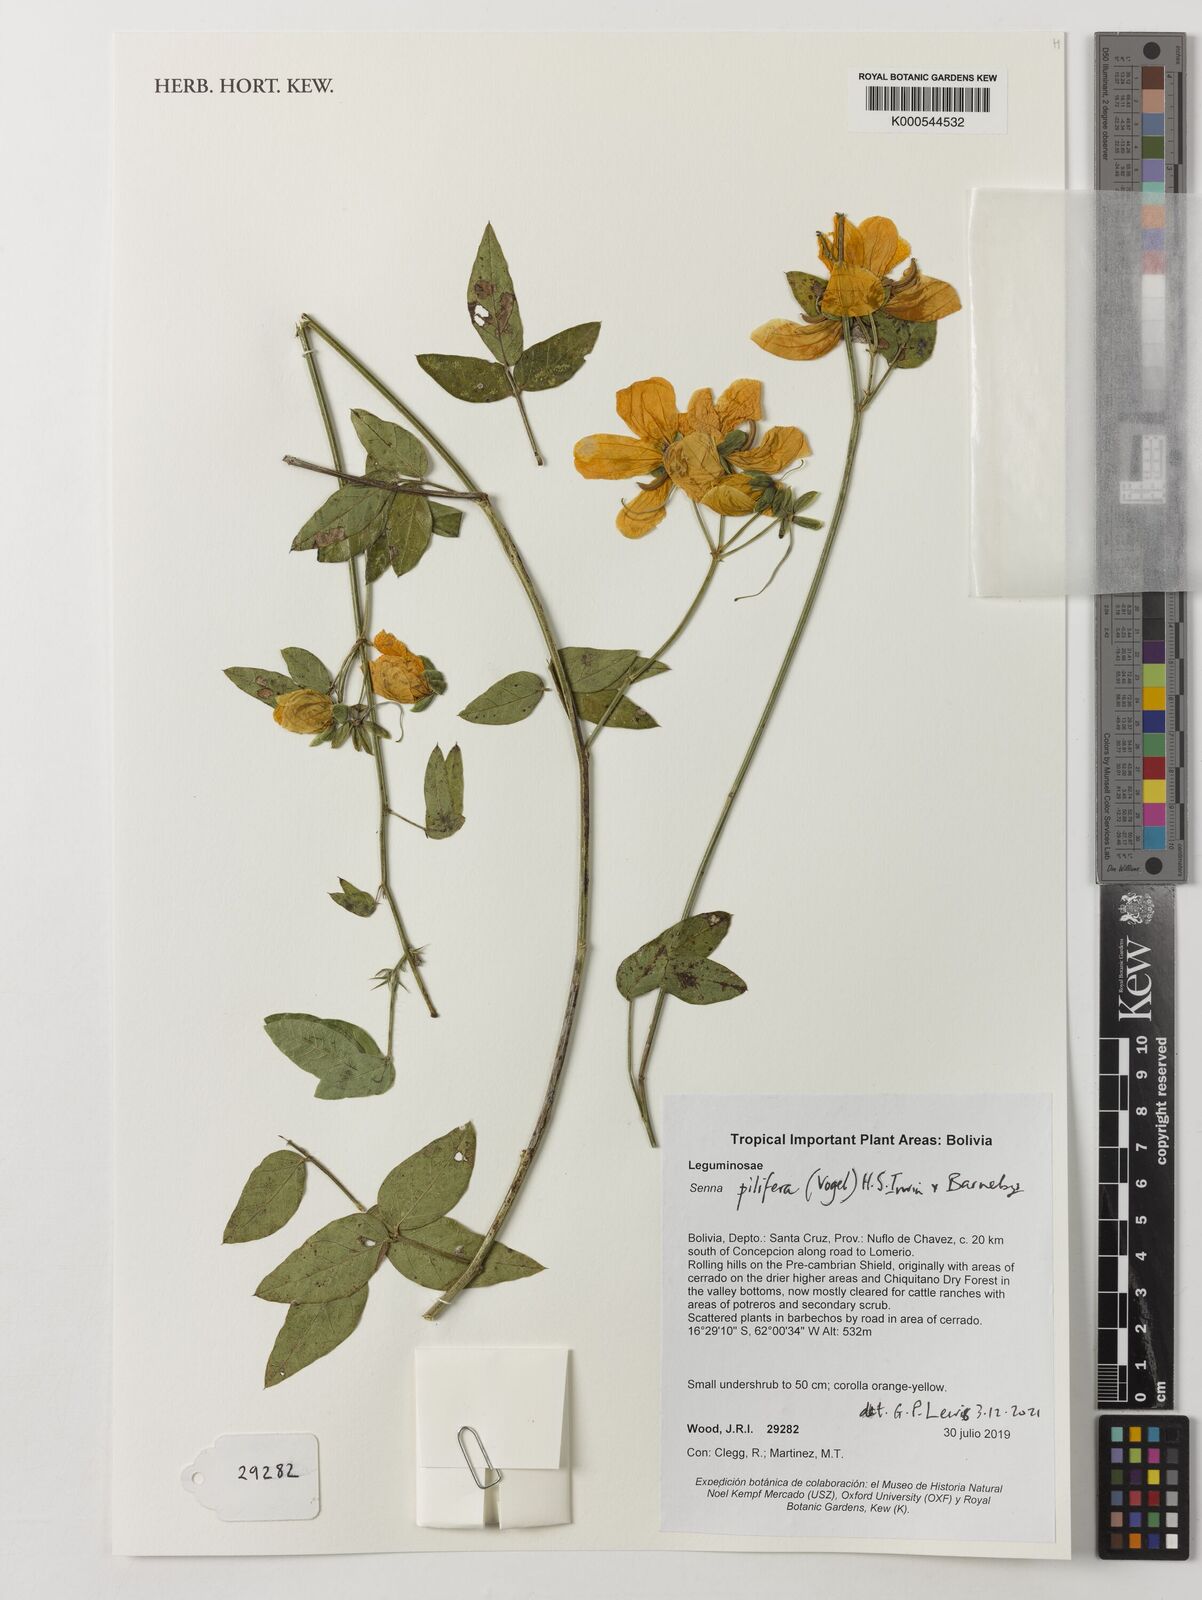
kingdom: Plantae
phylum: Tracheophyta
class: Magnoliopsida
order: Fabales
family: Fabaceae
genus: Senna
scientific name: Senna pilifera
